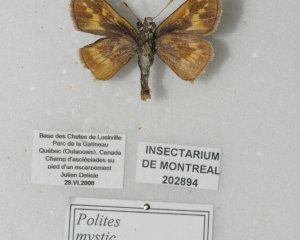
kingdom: Animalia
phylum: Arthropoda
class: Insecta
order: Lepidoptera
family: Hesperiidae
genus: Polites
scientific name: Polites
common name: Long Dash Skipper
